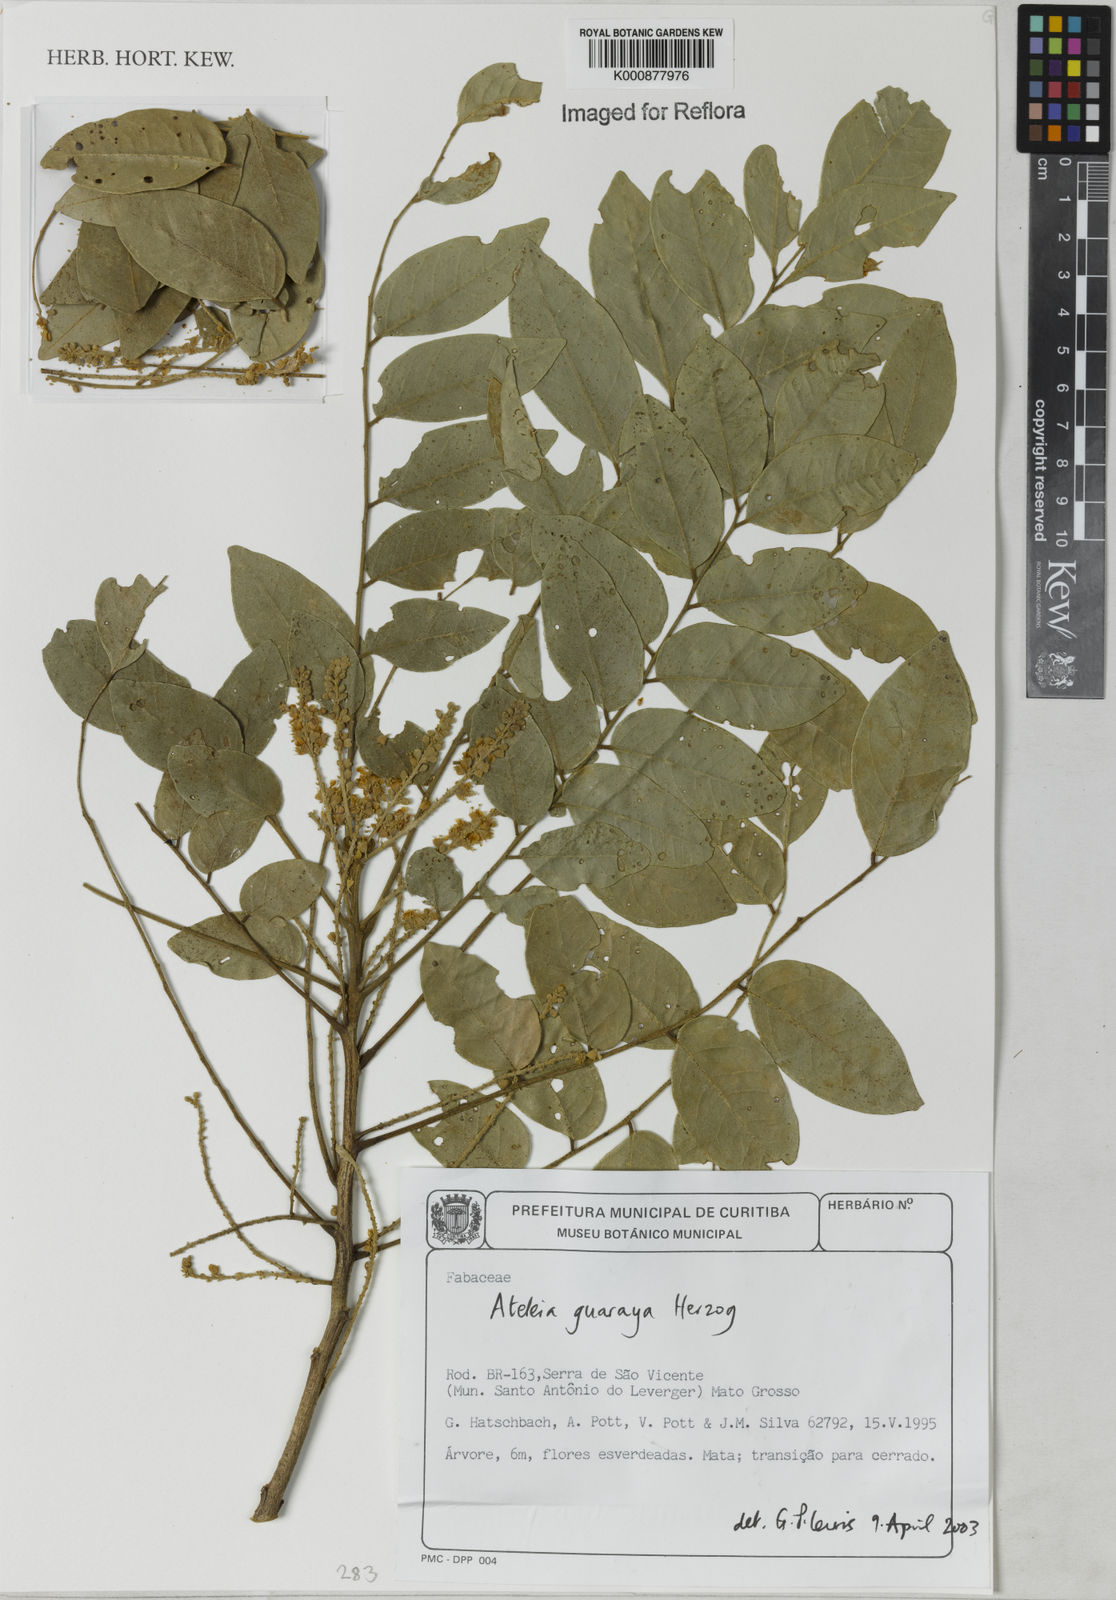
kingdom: Plantae
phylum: Tracheophyta
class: Magnoliopsida
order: Fabales
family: Fabaceae
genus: Ateleia
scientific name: Ateleia guaraya
